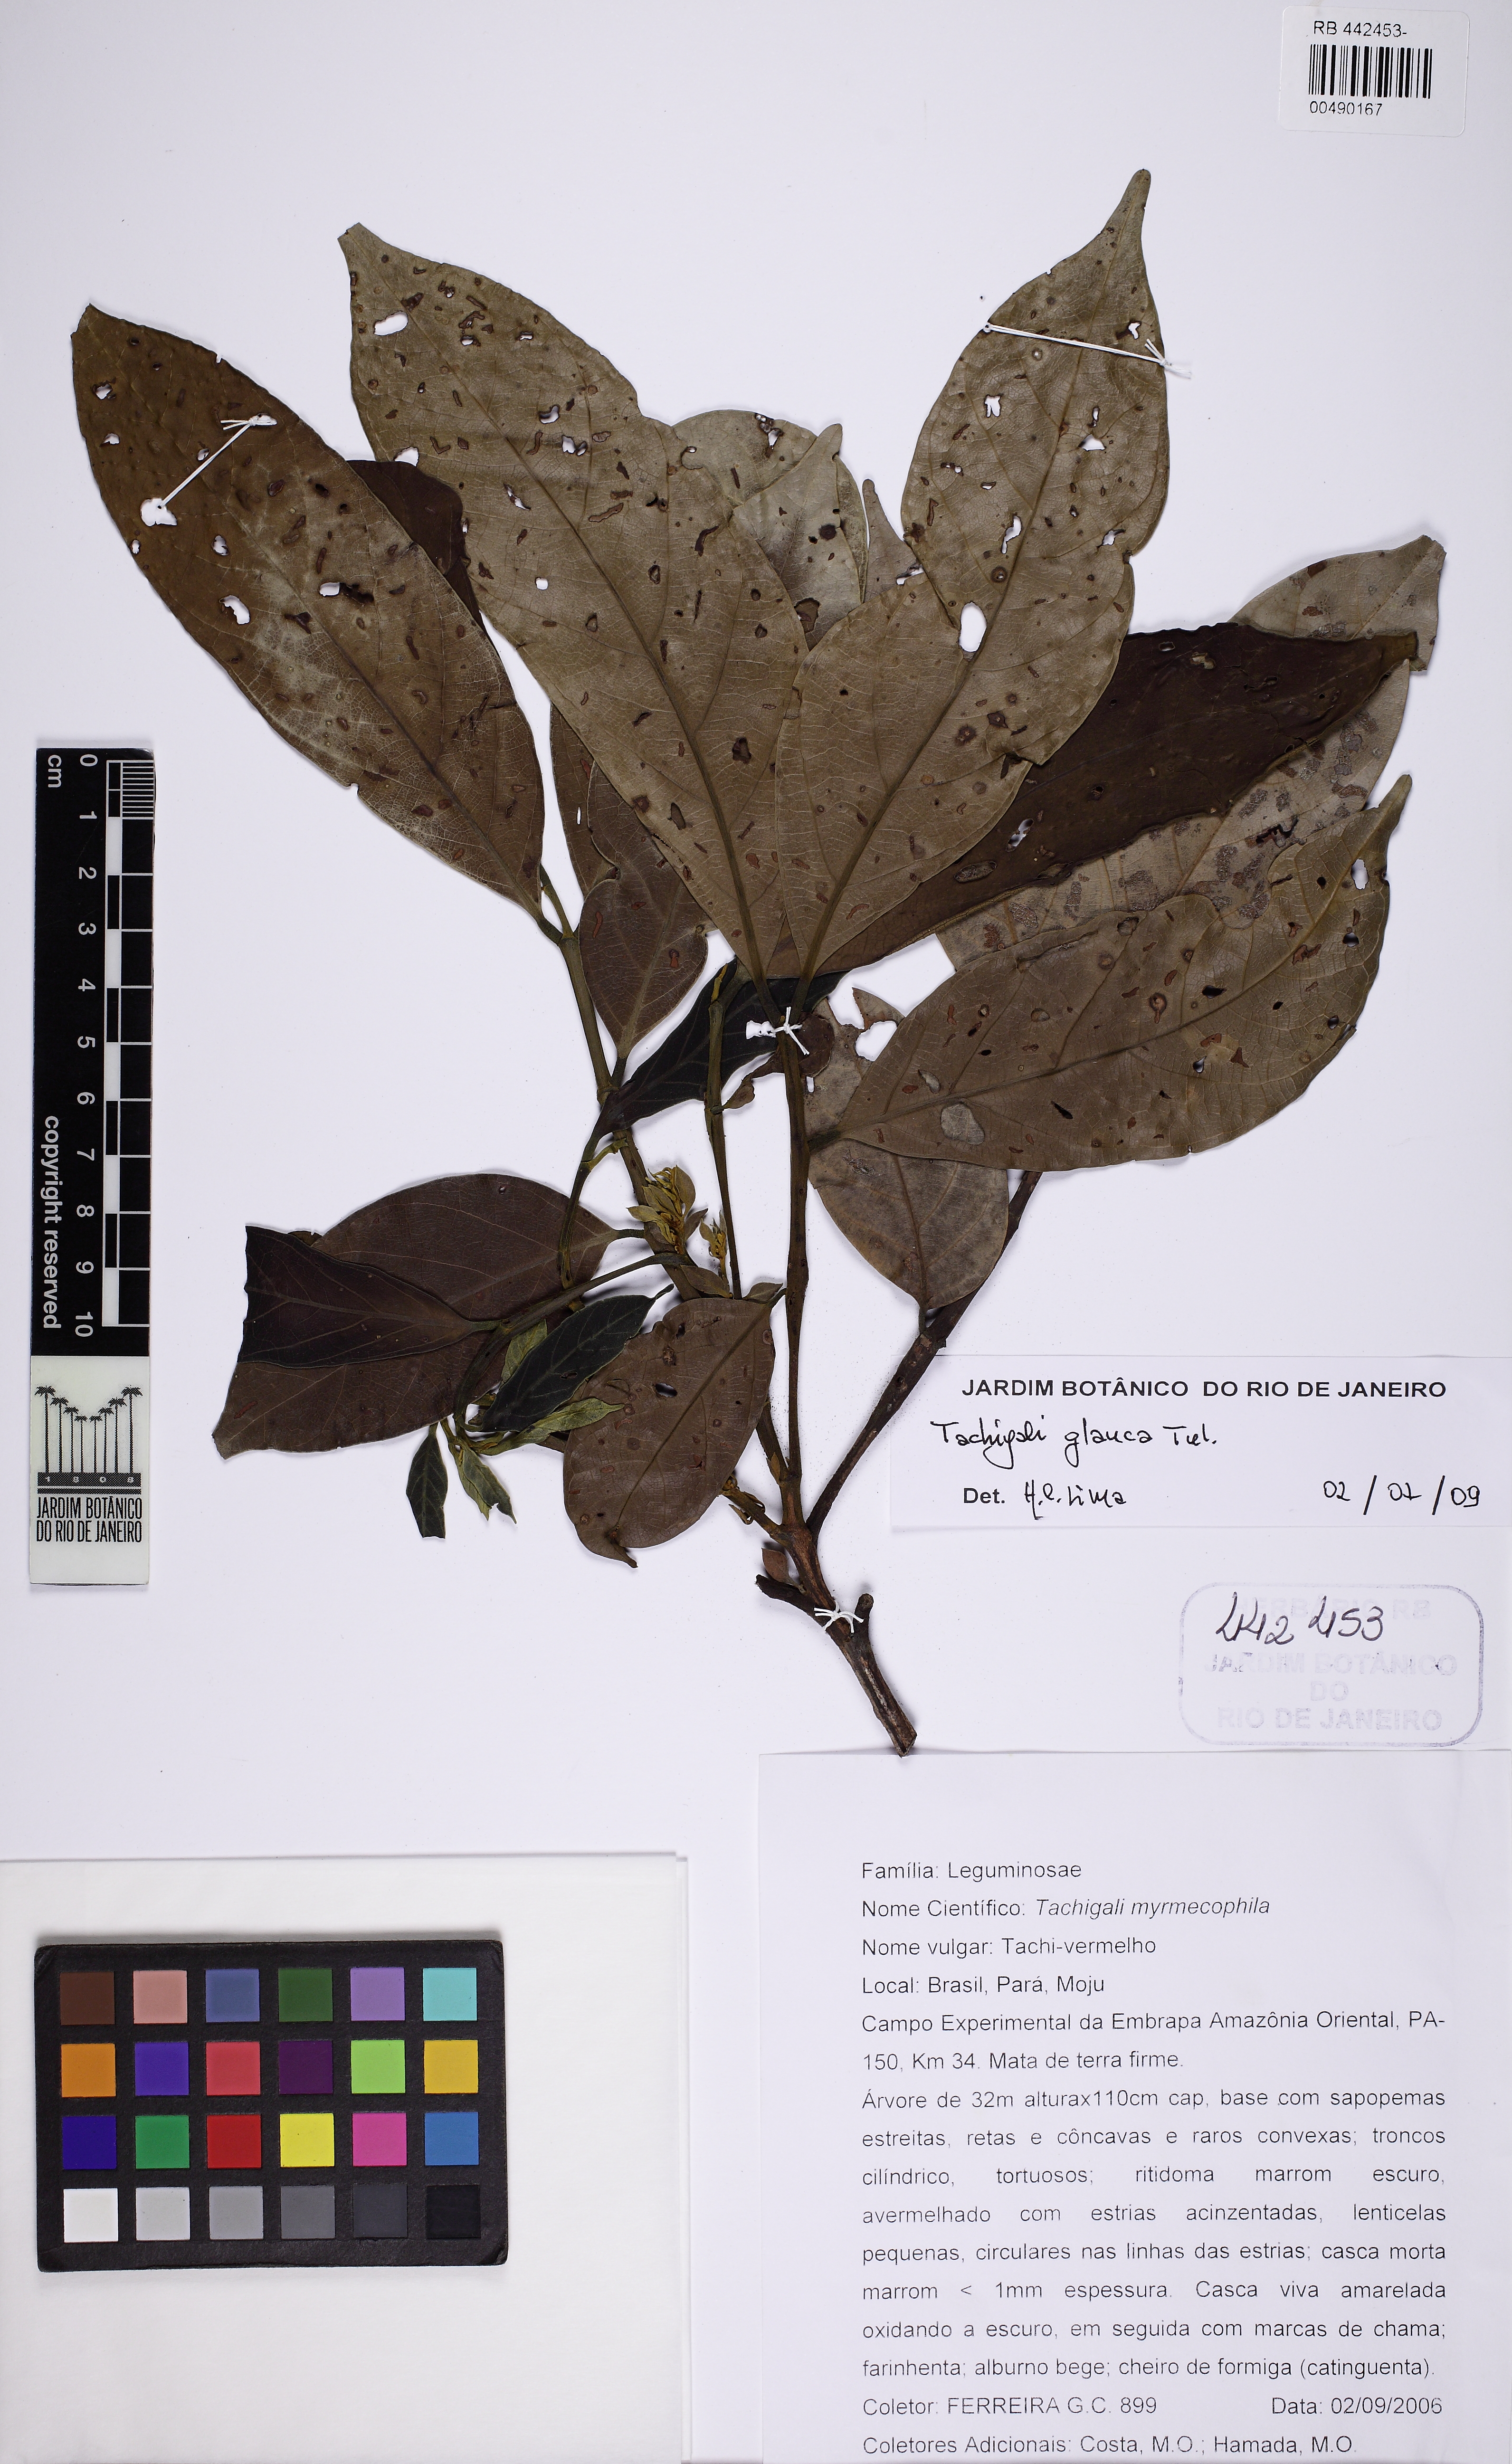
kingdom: Plantae
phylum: Tracheophyta
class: Magnoliopsida
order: Fabales
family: Fabaceae
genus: Tachigali
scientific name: Tachigali glauca
